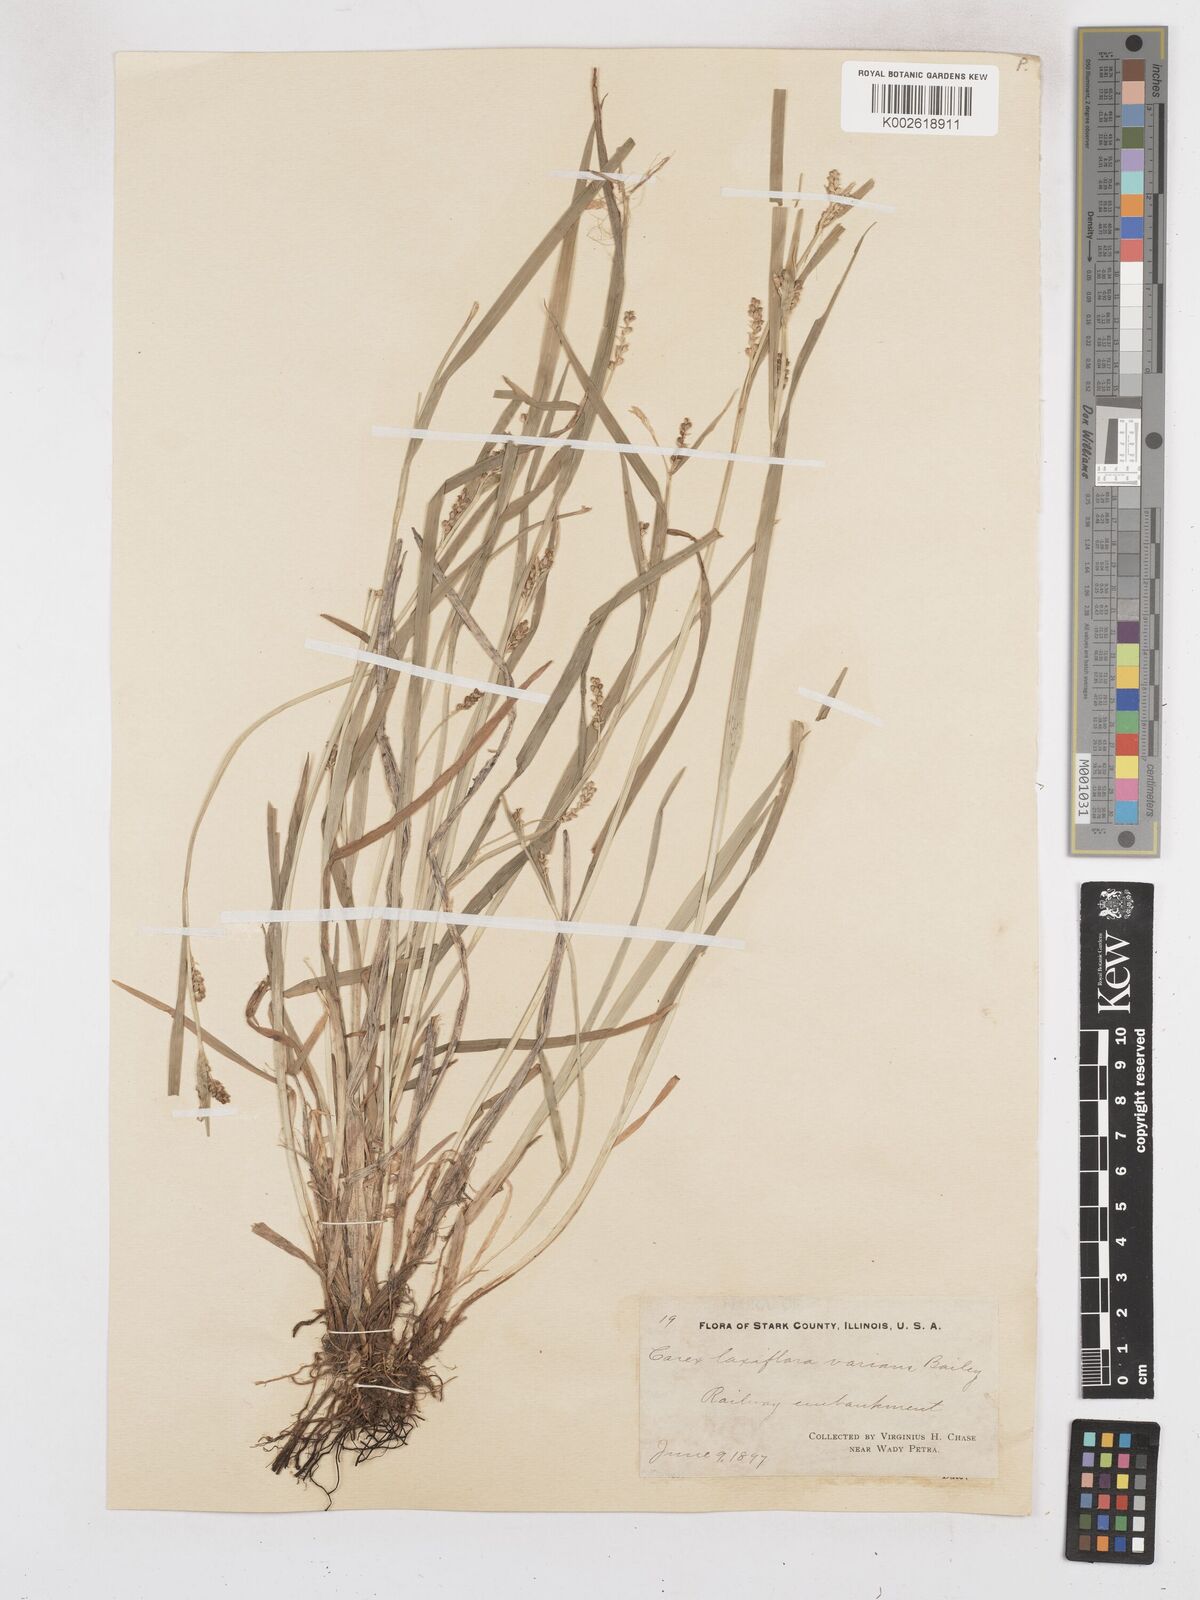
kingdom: Plantae
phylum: Tracheophyta
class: Liliopsida
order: Poales
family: Cyperaceae
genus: Carex
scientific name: Carex laxiflora
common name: Beech wood sedge
